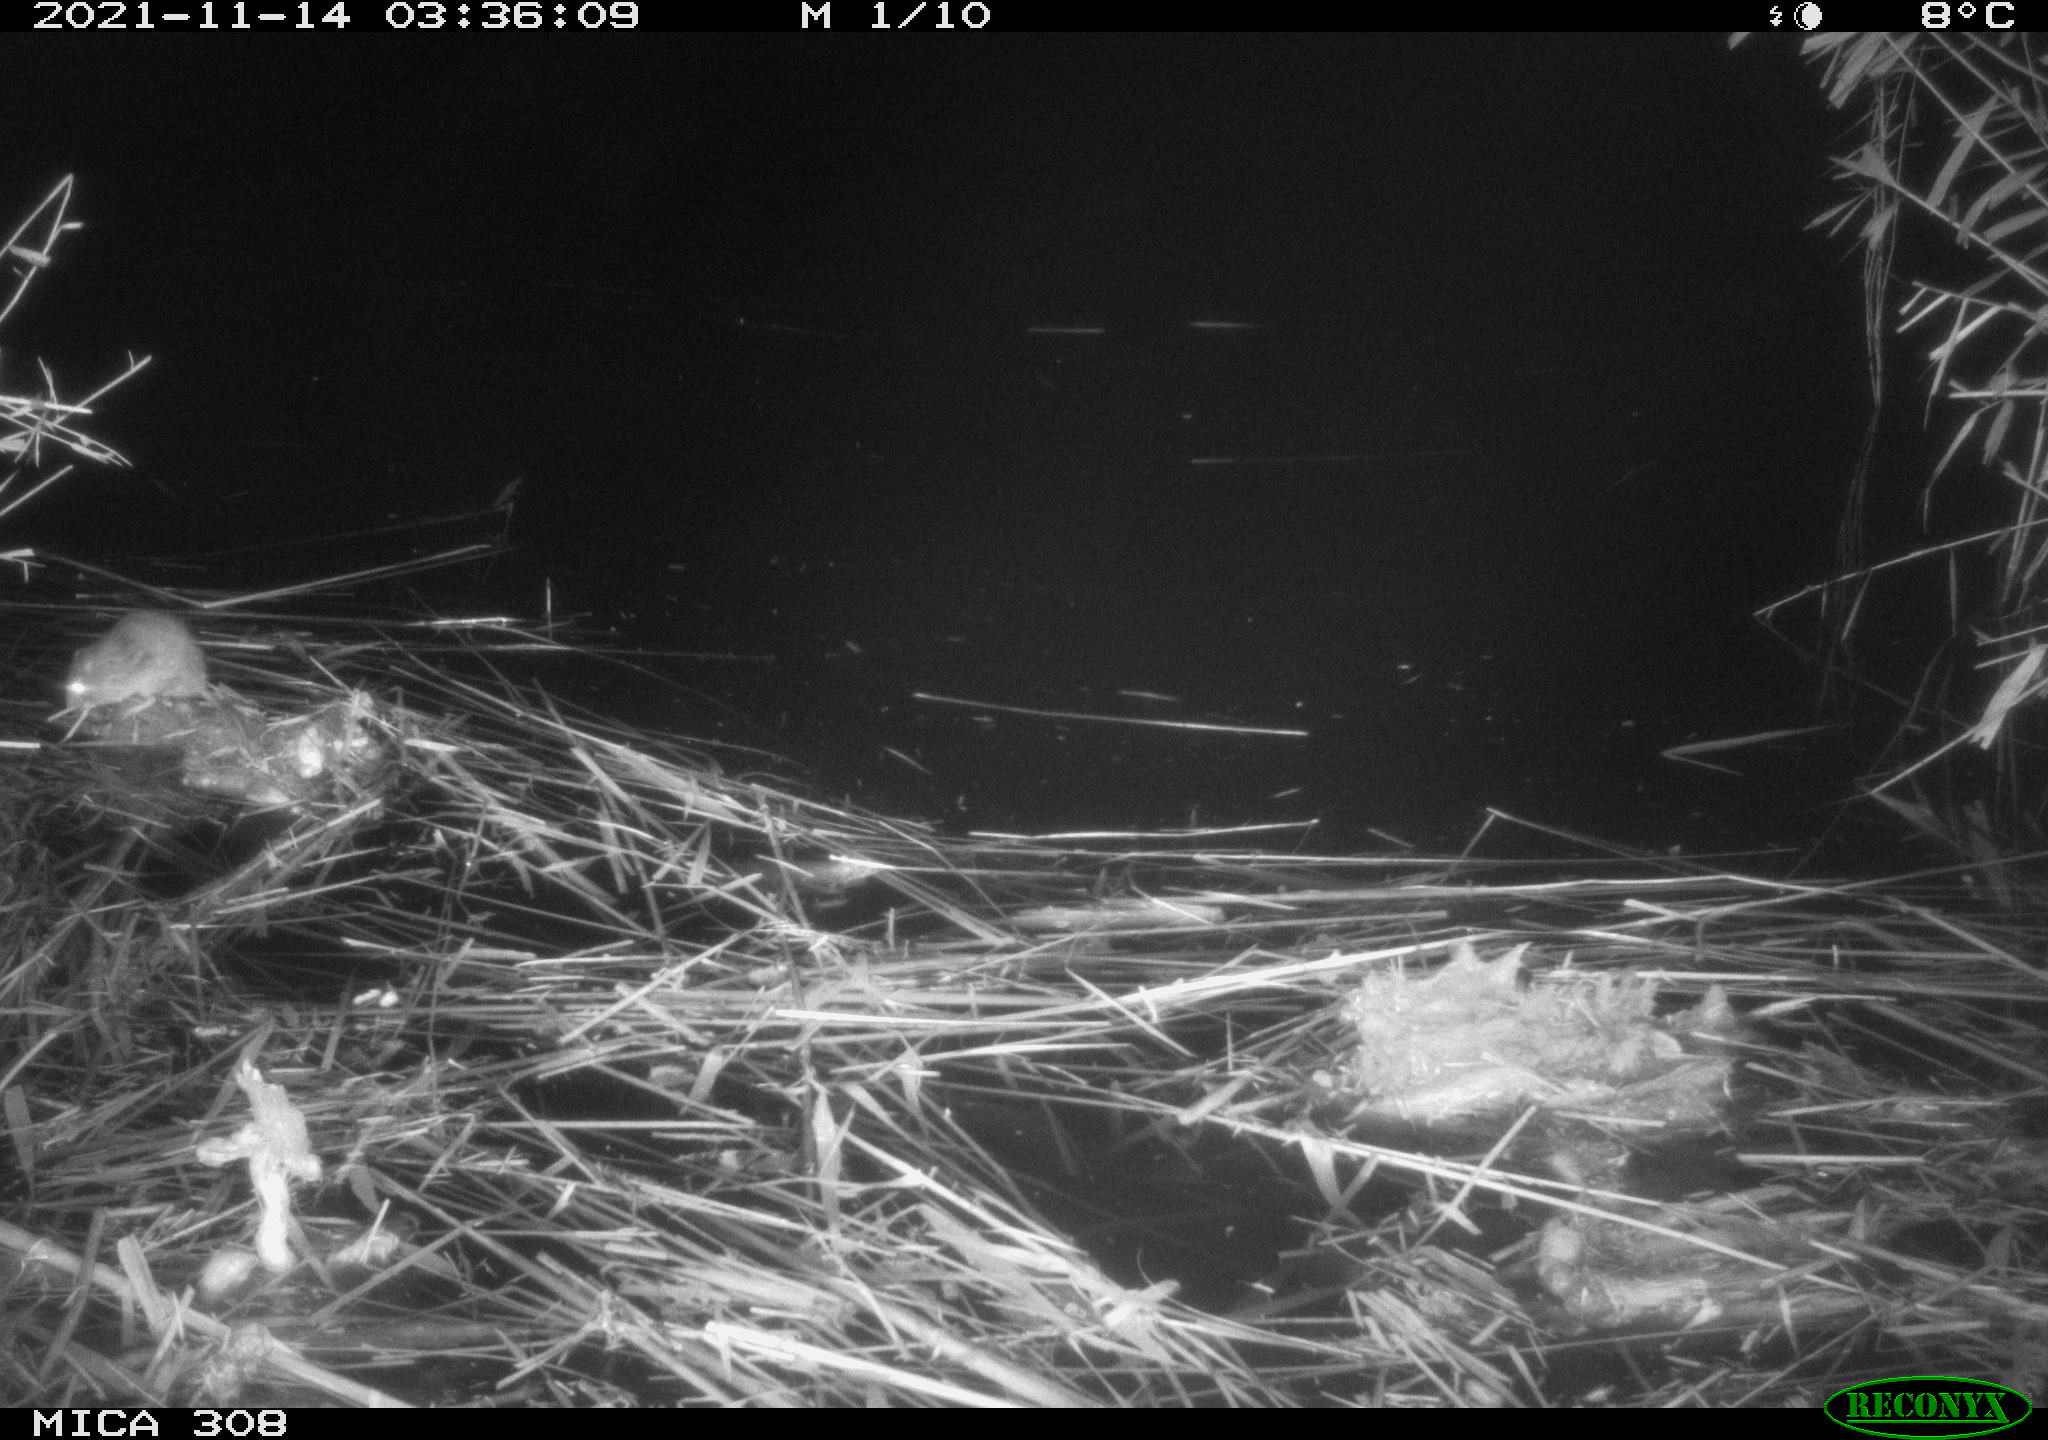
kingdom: Animalia
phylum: Chordata
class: Mammalia
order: Rodentia
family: Muridae
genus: Rattus
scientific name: Rattus norvegicus
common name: Brown rat
